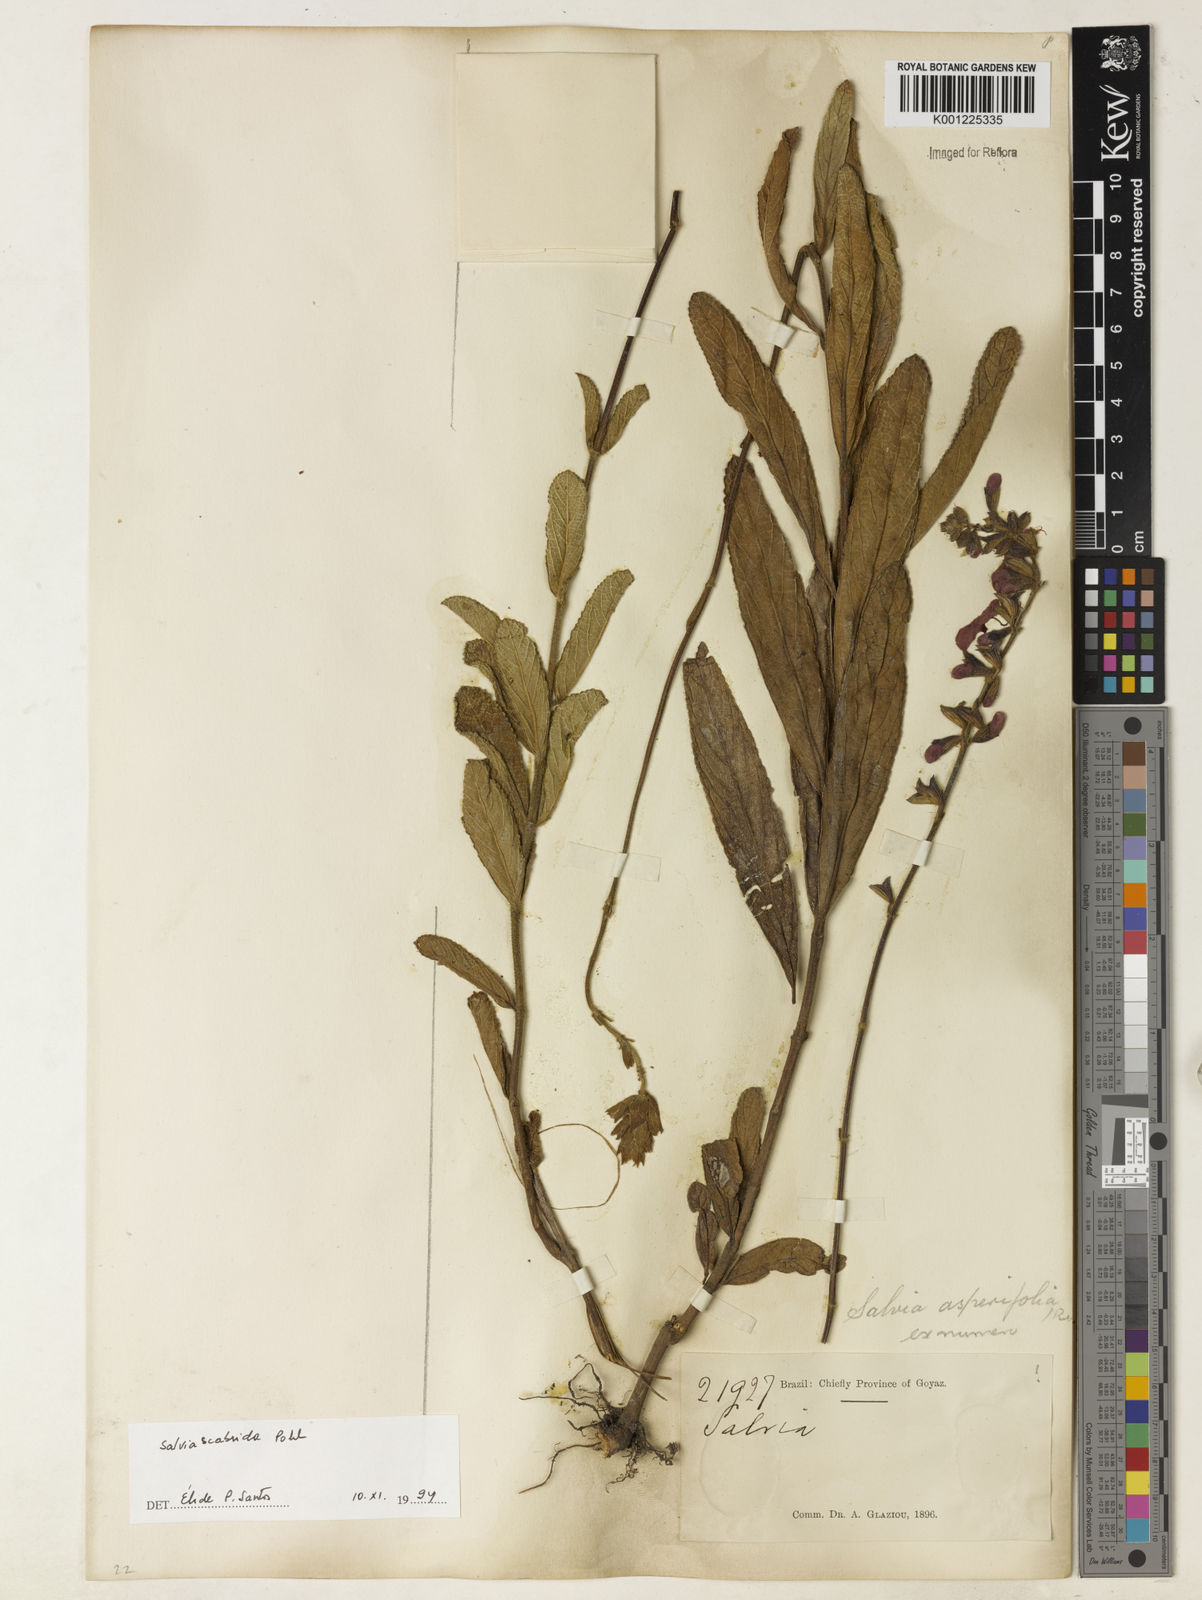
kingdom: Plantae
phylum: Tracheophyta
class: Magnoliopsida
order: Lamiales
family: Lamiaceae
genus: Salvia
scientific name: Salvia scabrida
